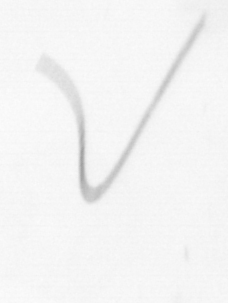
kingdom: Chromista
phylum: Ochrophyta
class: Bacillariophyceae
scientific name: Bacillariophyceae
